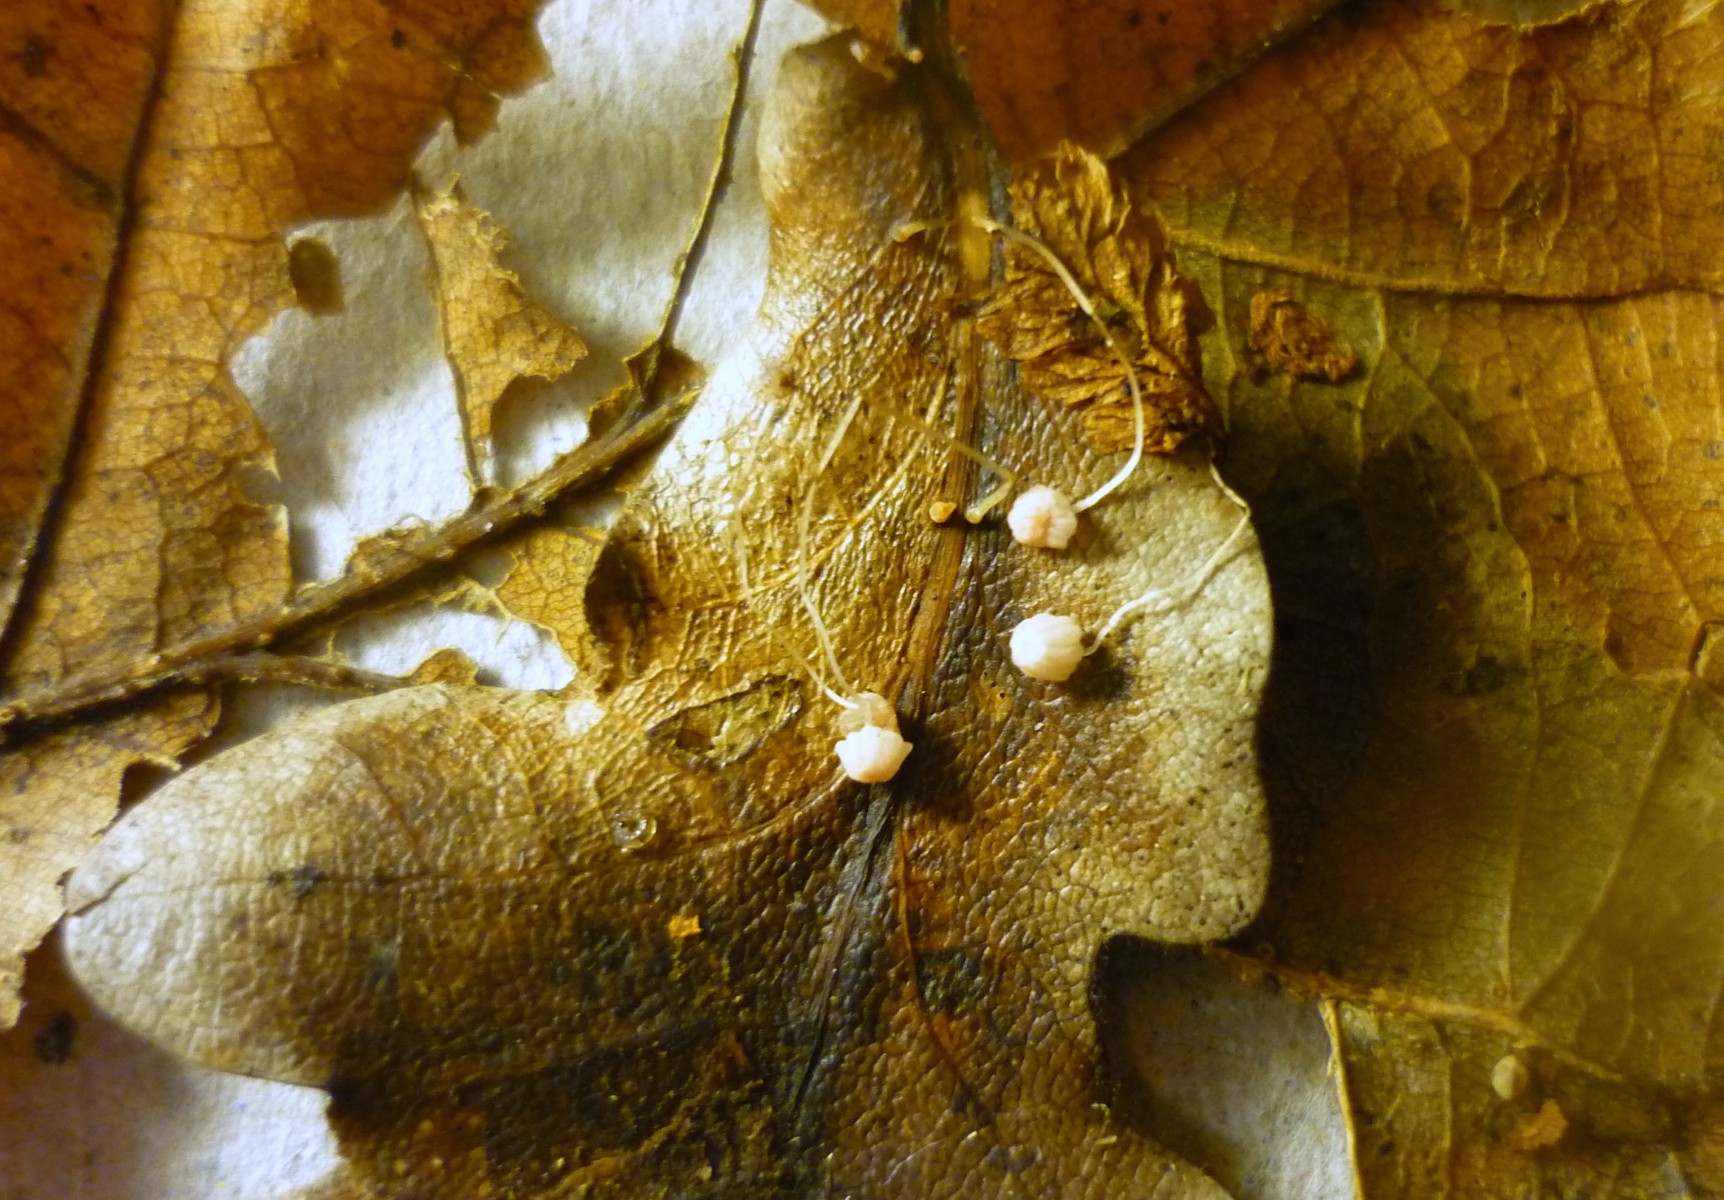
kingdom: Fungi
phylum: Basidiomycota
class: Agaricomycetes
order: Agaricales
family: Mycenaceae
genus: Mycena
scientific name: Mycena smithiana
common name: blegrød huesvamp
